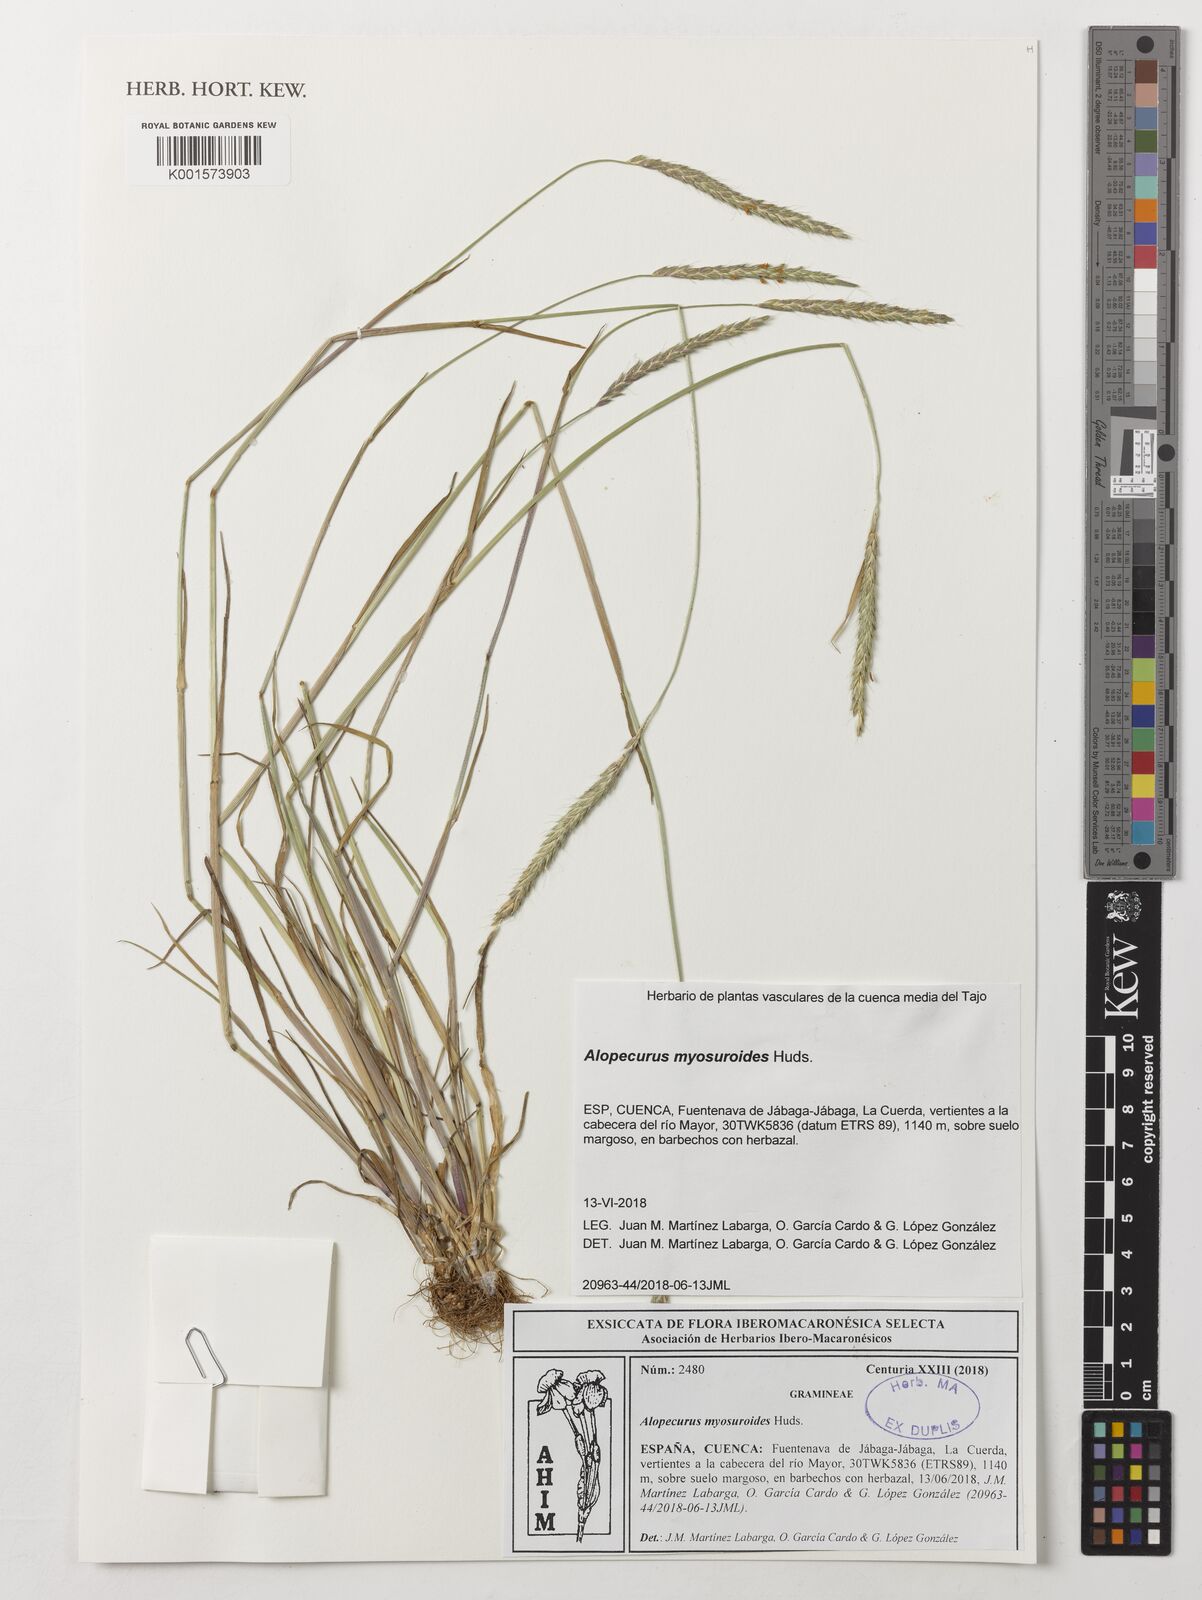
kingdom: Plantae
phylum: Tracheophyta
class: Liliopsida
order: Poales
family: Poaceae
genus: Alopecurus
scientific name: Alopecurus myosuroides
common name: Black-grass
